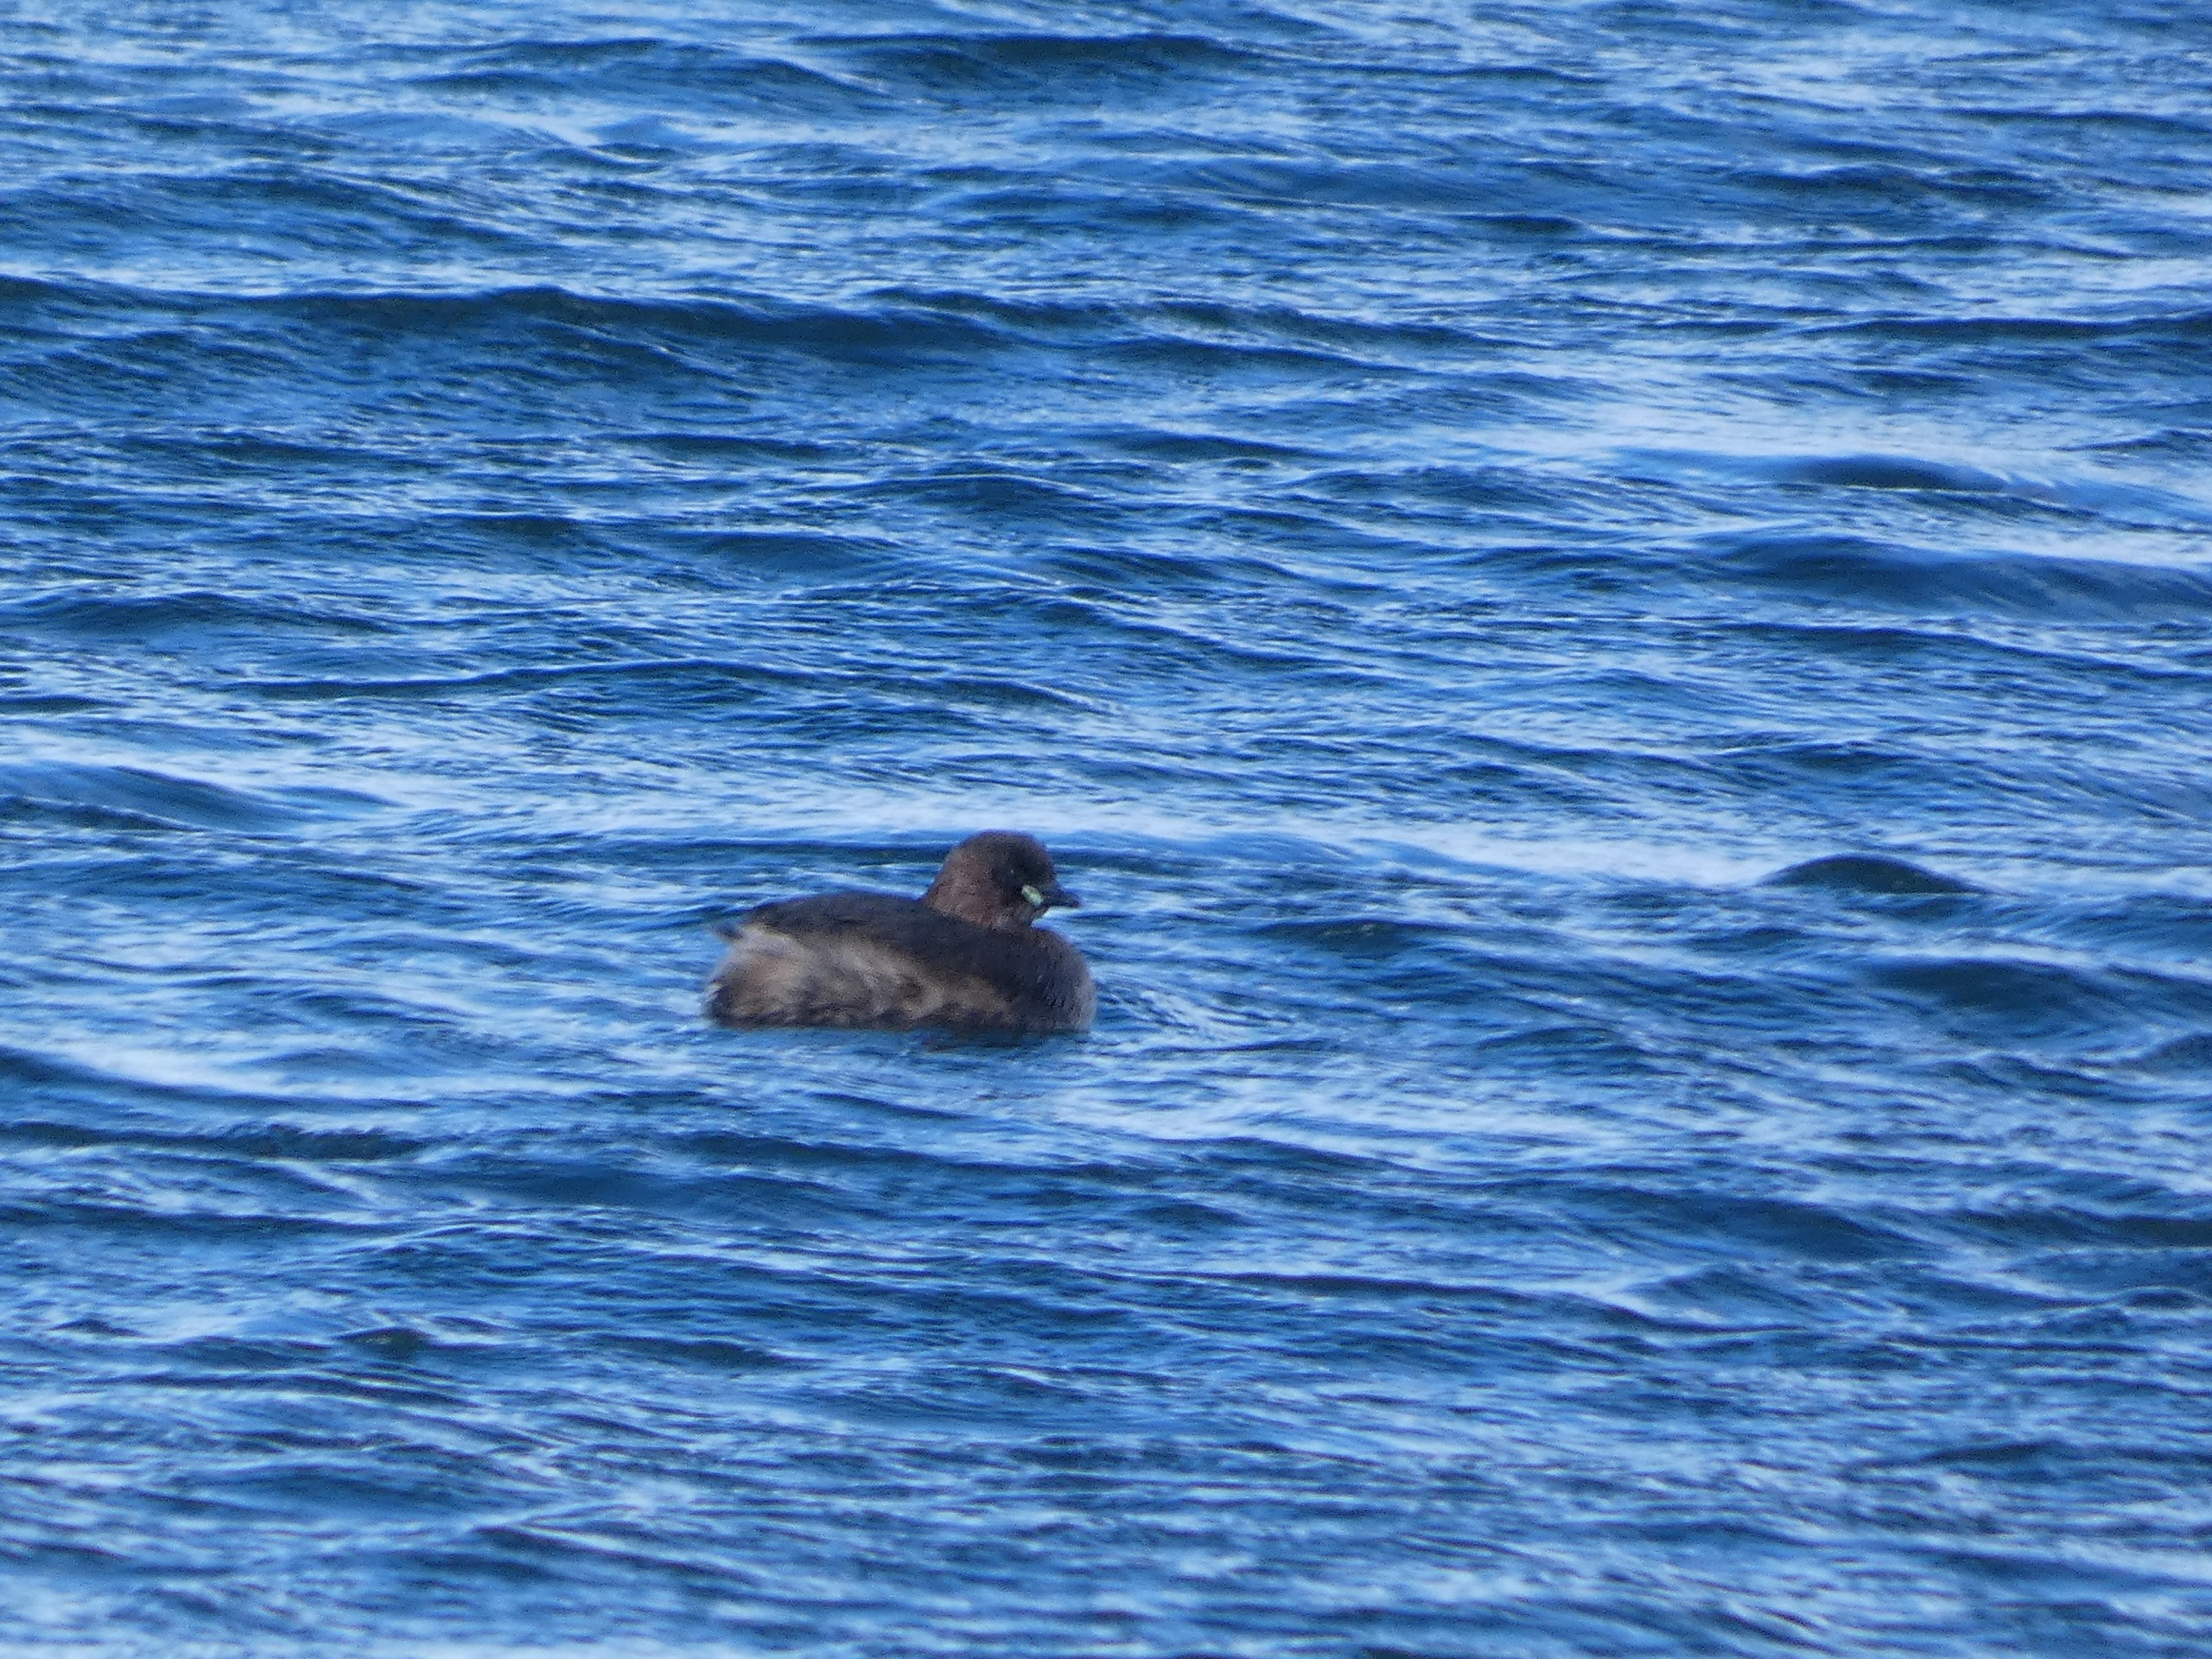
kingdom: Animalia
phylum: Chordata
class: Aves
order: Podicipediformes
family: Podicipedidae
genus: Tachybaptus
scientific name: Tachybaptus ruficollis
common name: Lille lappedykker
